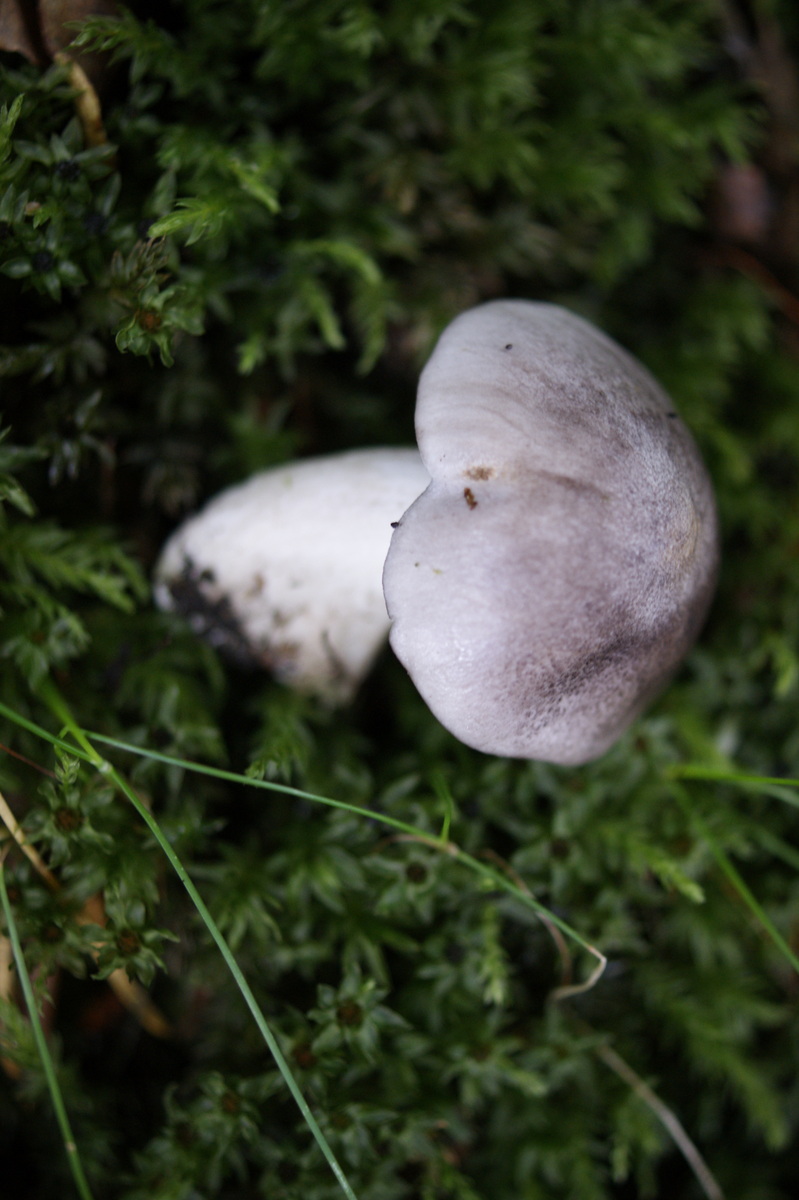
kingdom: Fungi
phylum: Basidiomycota
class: Agaricomycetes
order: Agaricales
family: Tricholomataceae
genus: Tricholoma
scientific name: Tricholoma sciodes
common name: stribet ridderhat
